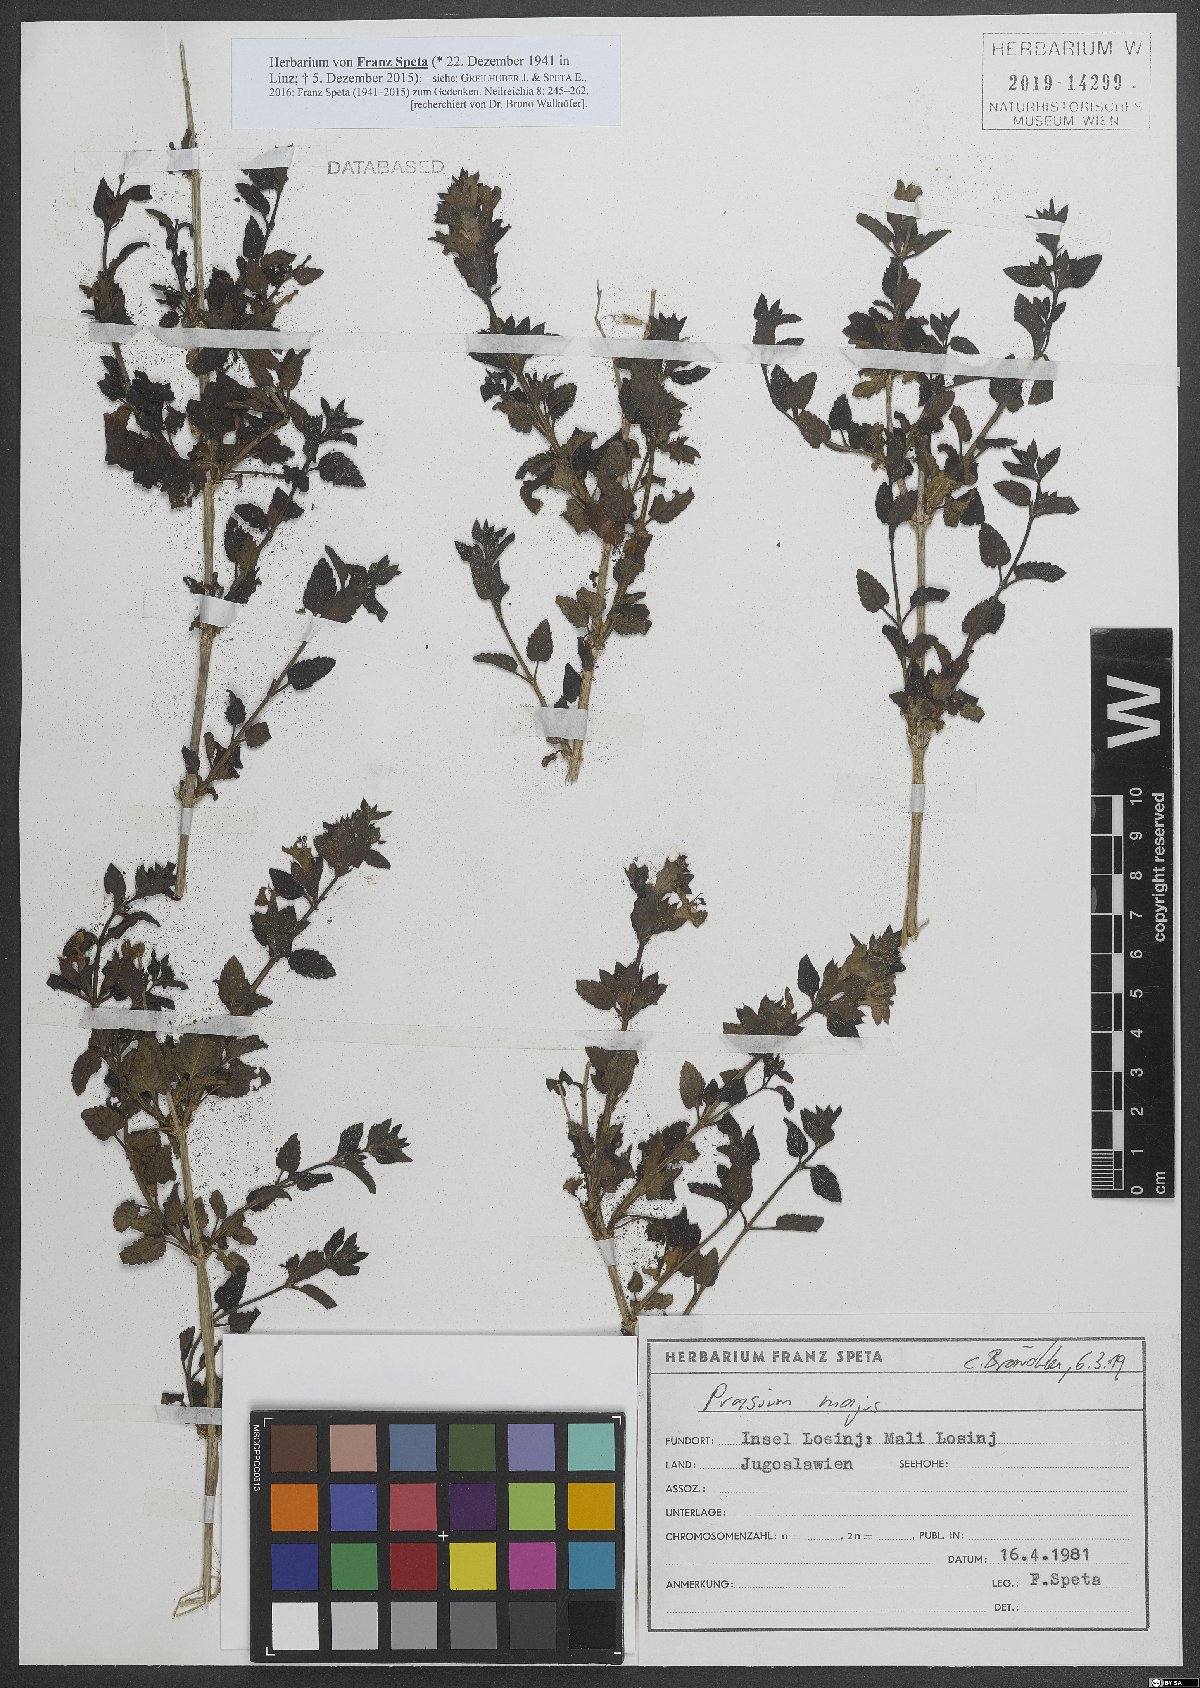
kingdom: Plantae
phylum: Tracheophyta
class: Magnoliopsida
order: Lamiales
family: Lamiaceae
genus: Prasium
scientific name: Prasium majus
